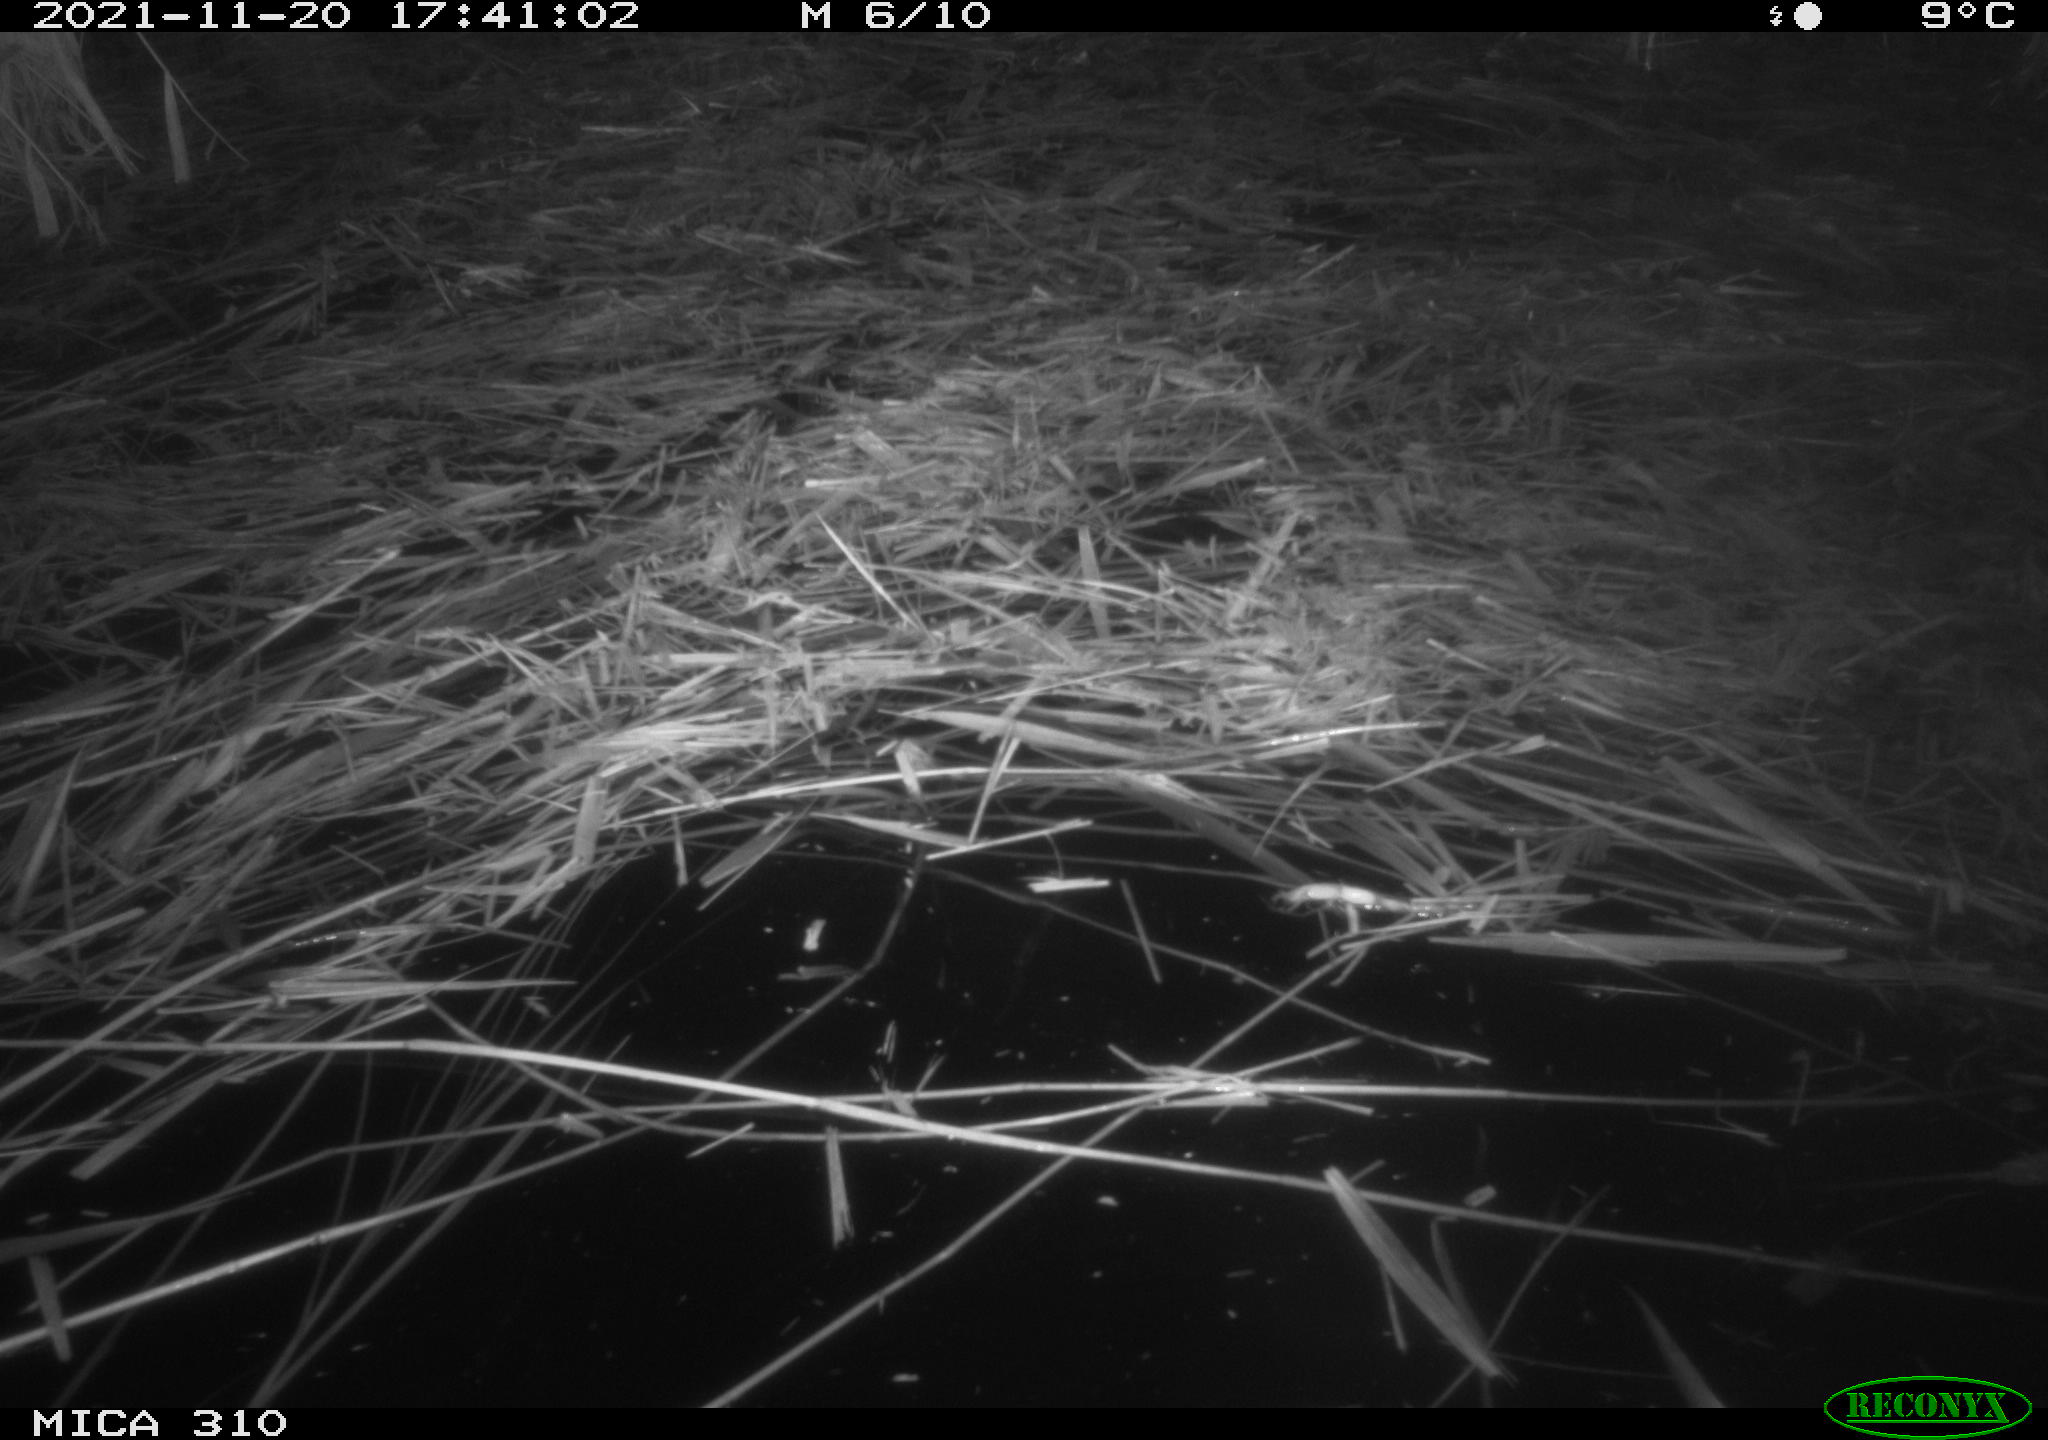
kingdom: Animalia
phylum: Chordata
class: Mammalia
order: Rodentia
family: Muridae
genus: Rattus
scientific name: Rattus norvegicus
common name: Brown rat
